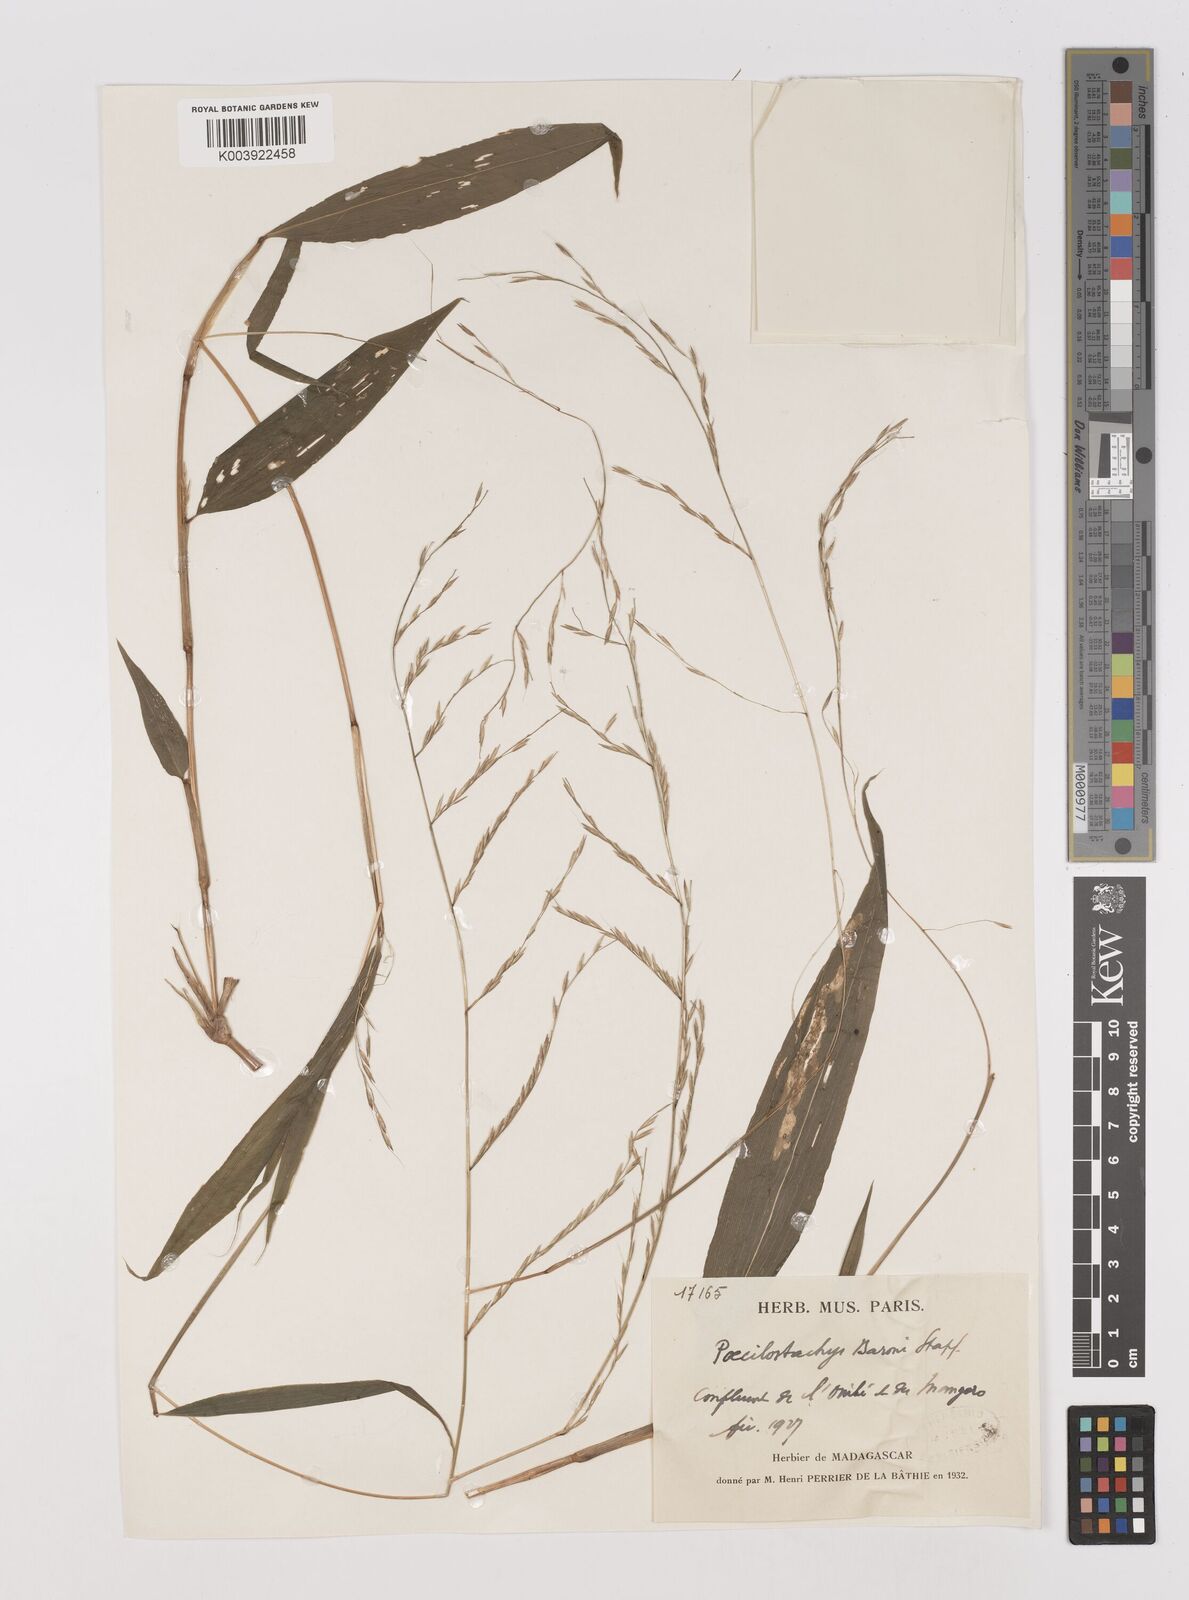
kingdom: Plantae
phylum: Tracheophyta
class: Liliopsida
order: Poales
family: Poaceae
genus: Poecilostachys
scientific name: Poecilostachys baronis
